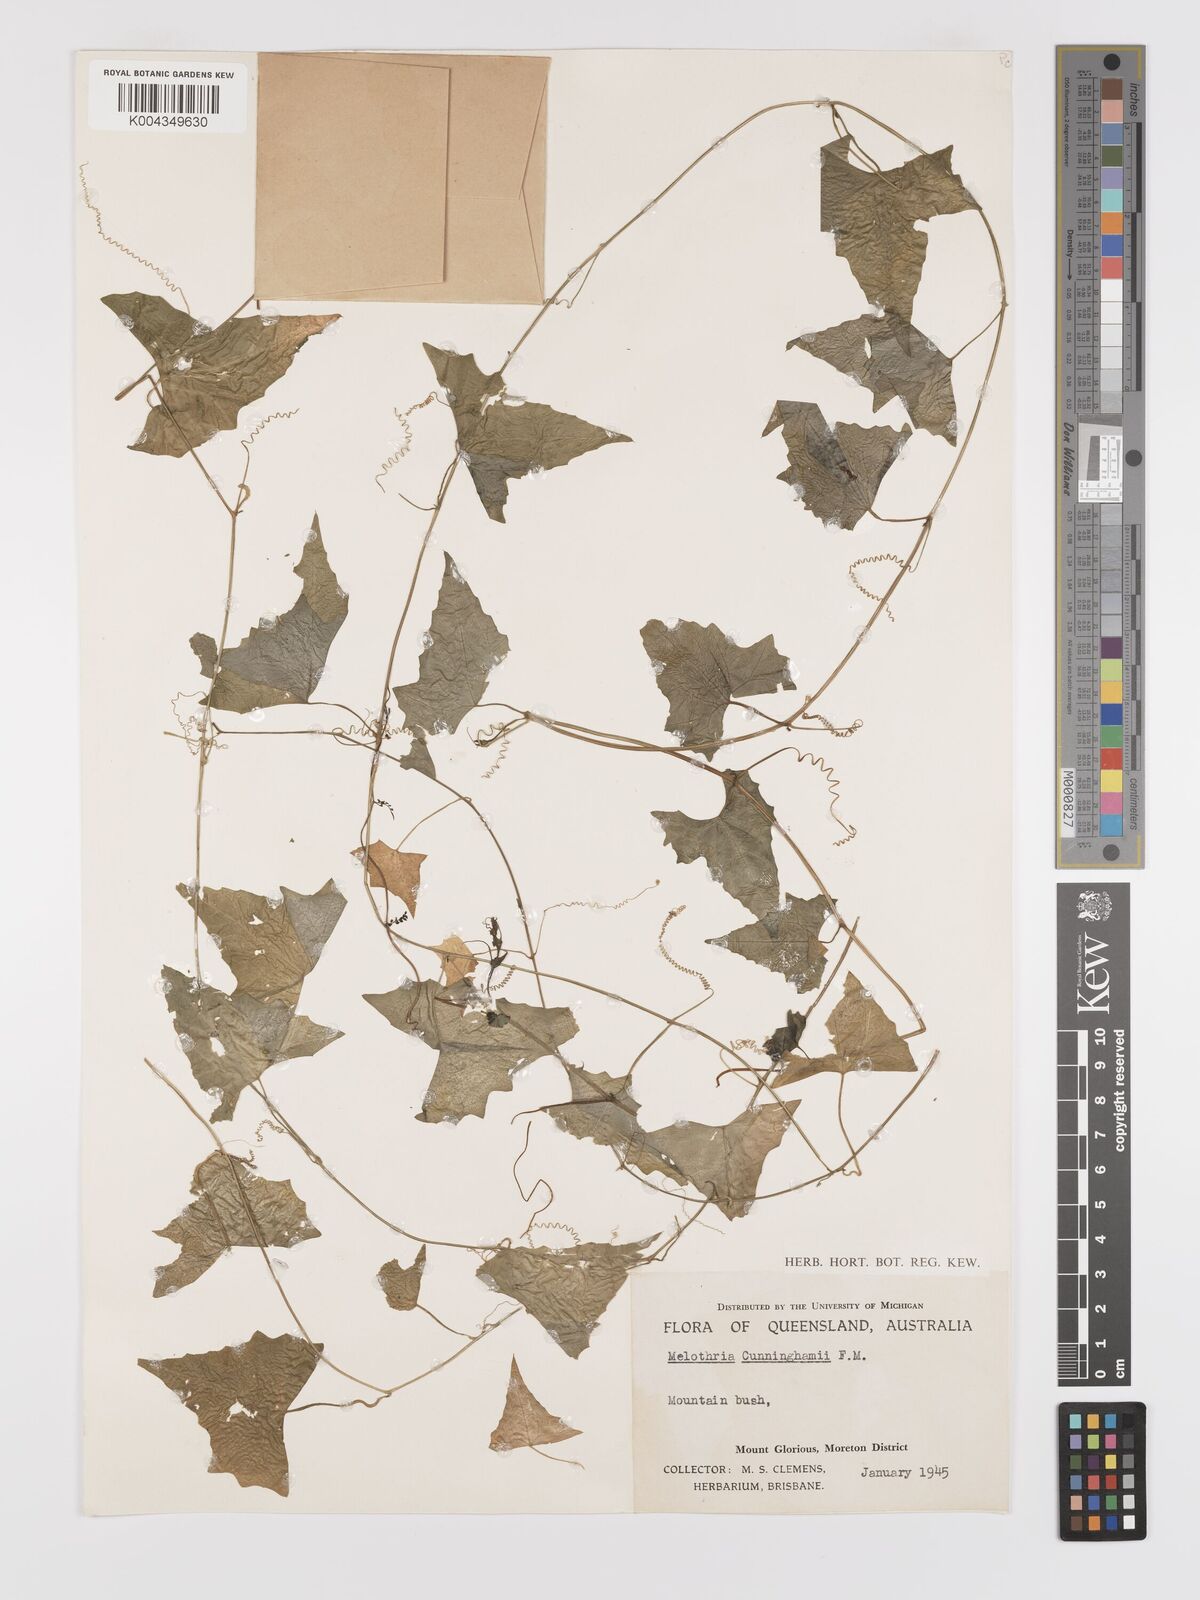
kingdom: Plantae
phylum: Tracheophyta
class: Magnoliopsida
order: Cucurbitales
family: Cucurbitaceae
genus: Zehneria
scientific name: Zehneria cunninghamii
